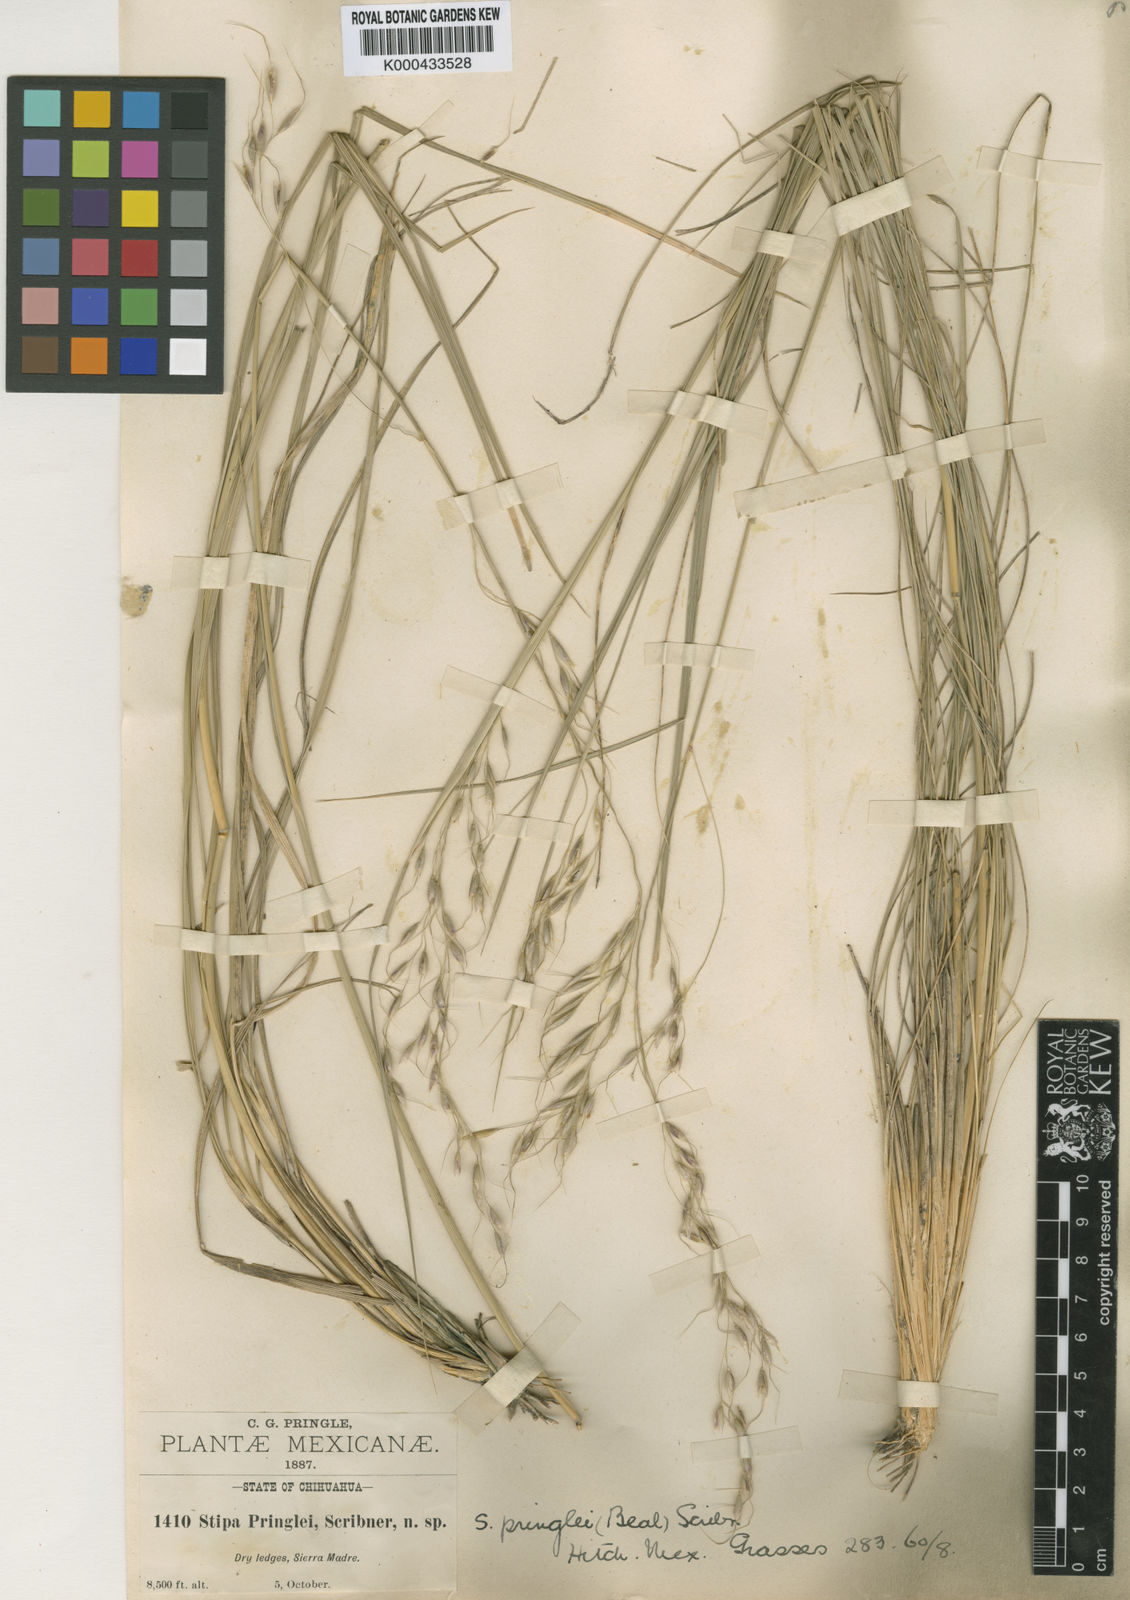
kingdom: Plantae
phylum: Tracheophyta
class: Liliopsida
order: Poales
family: Poaceae
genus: Piptochaetium
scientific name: Piptochaetium pringlei
